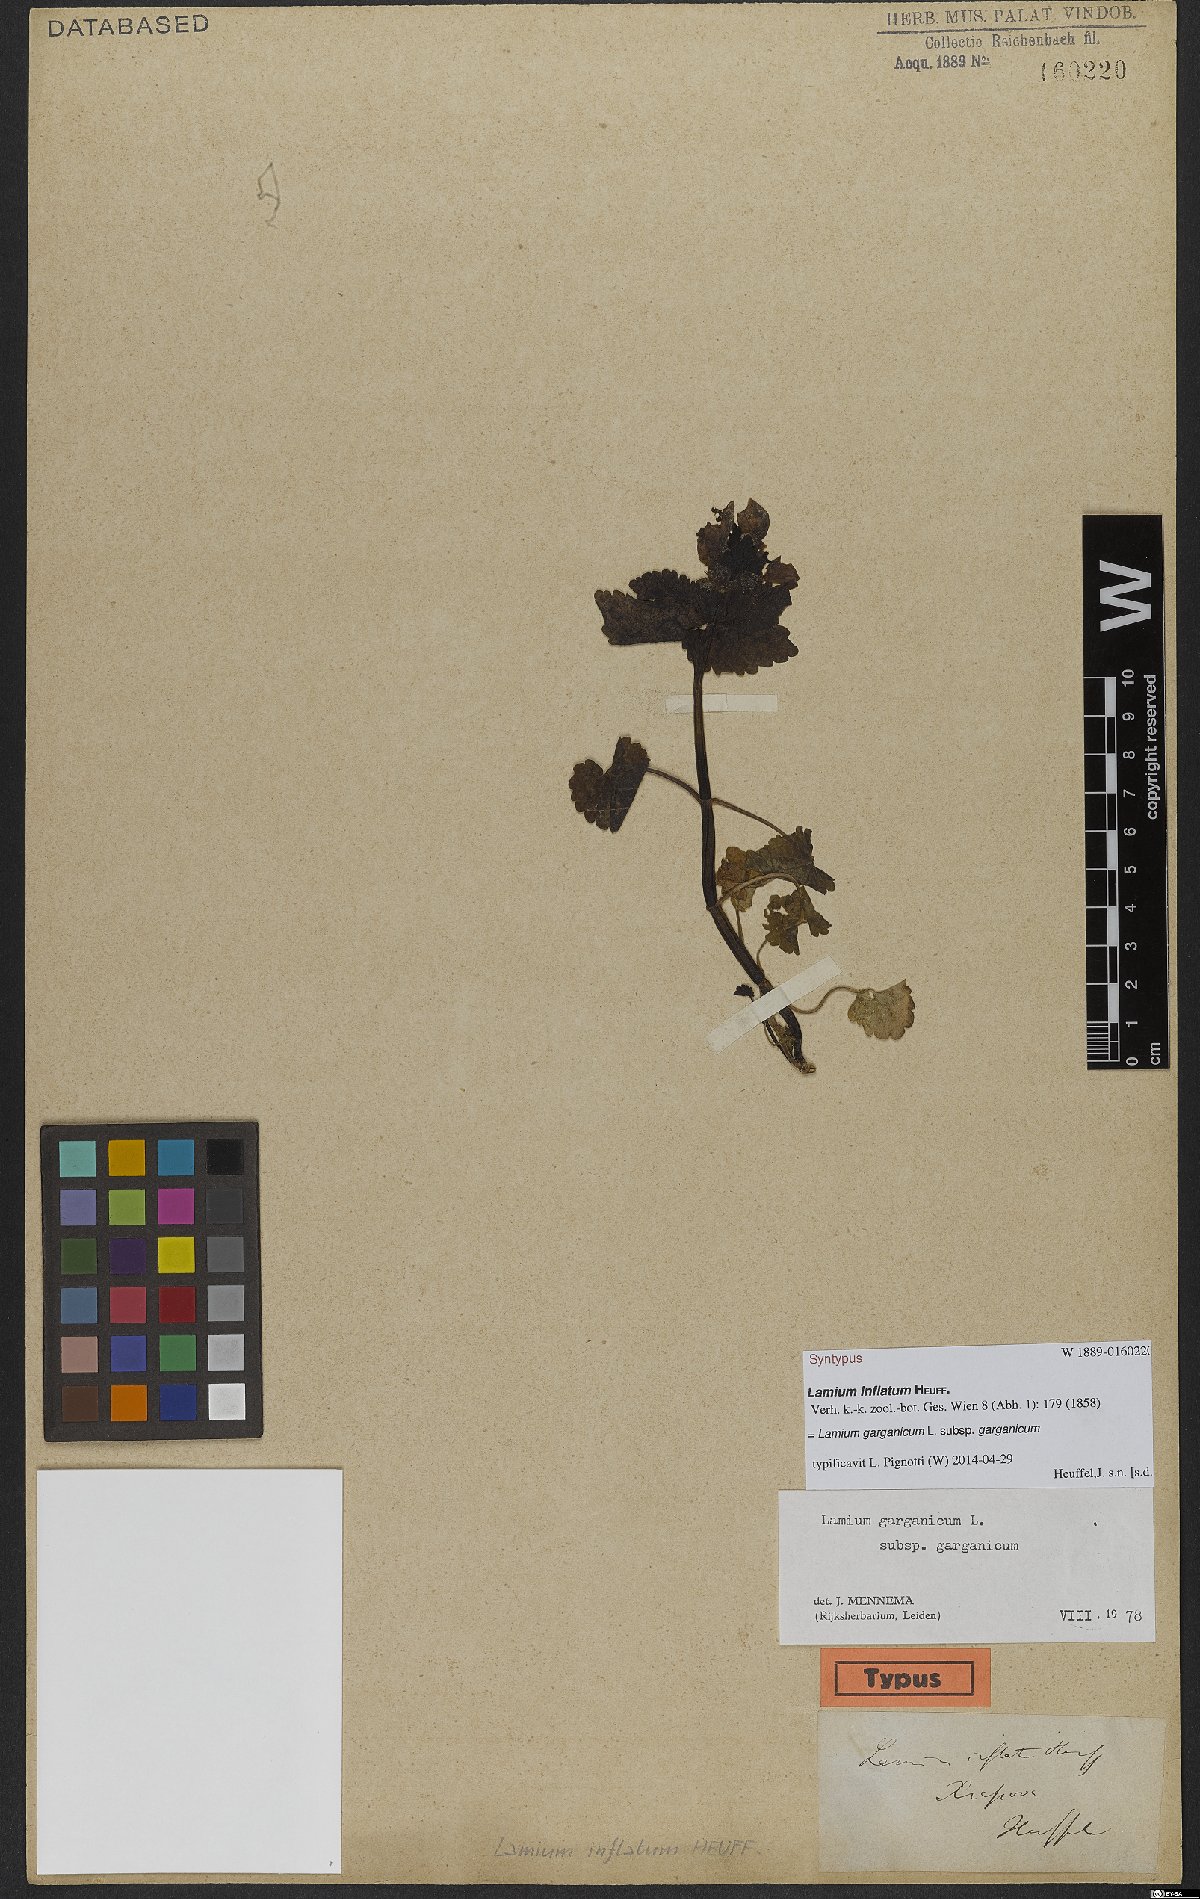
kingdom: Plantae
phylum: Tracheophyta
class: Magnoliopsida
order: Lamiales
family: Lamiaceae
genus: Lamium
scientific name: Lamium garganicum
